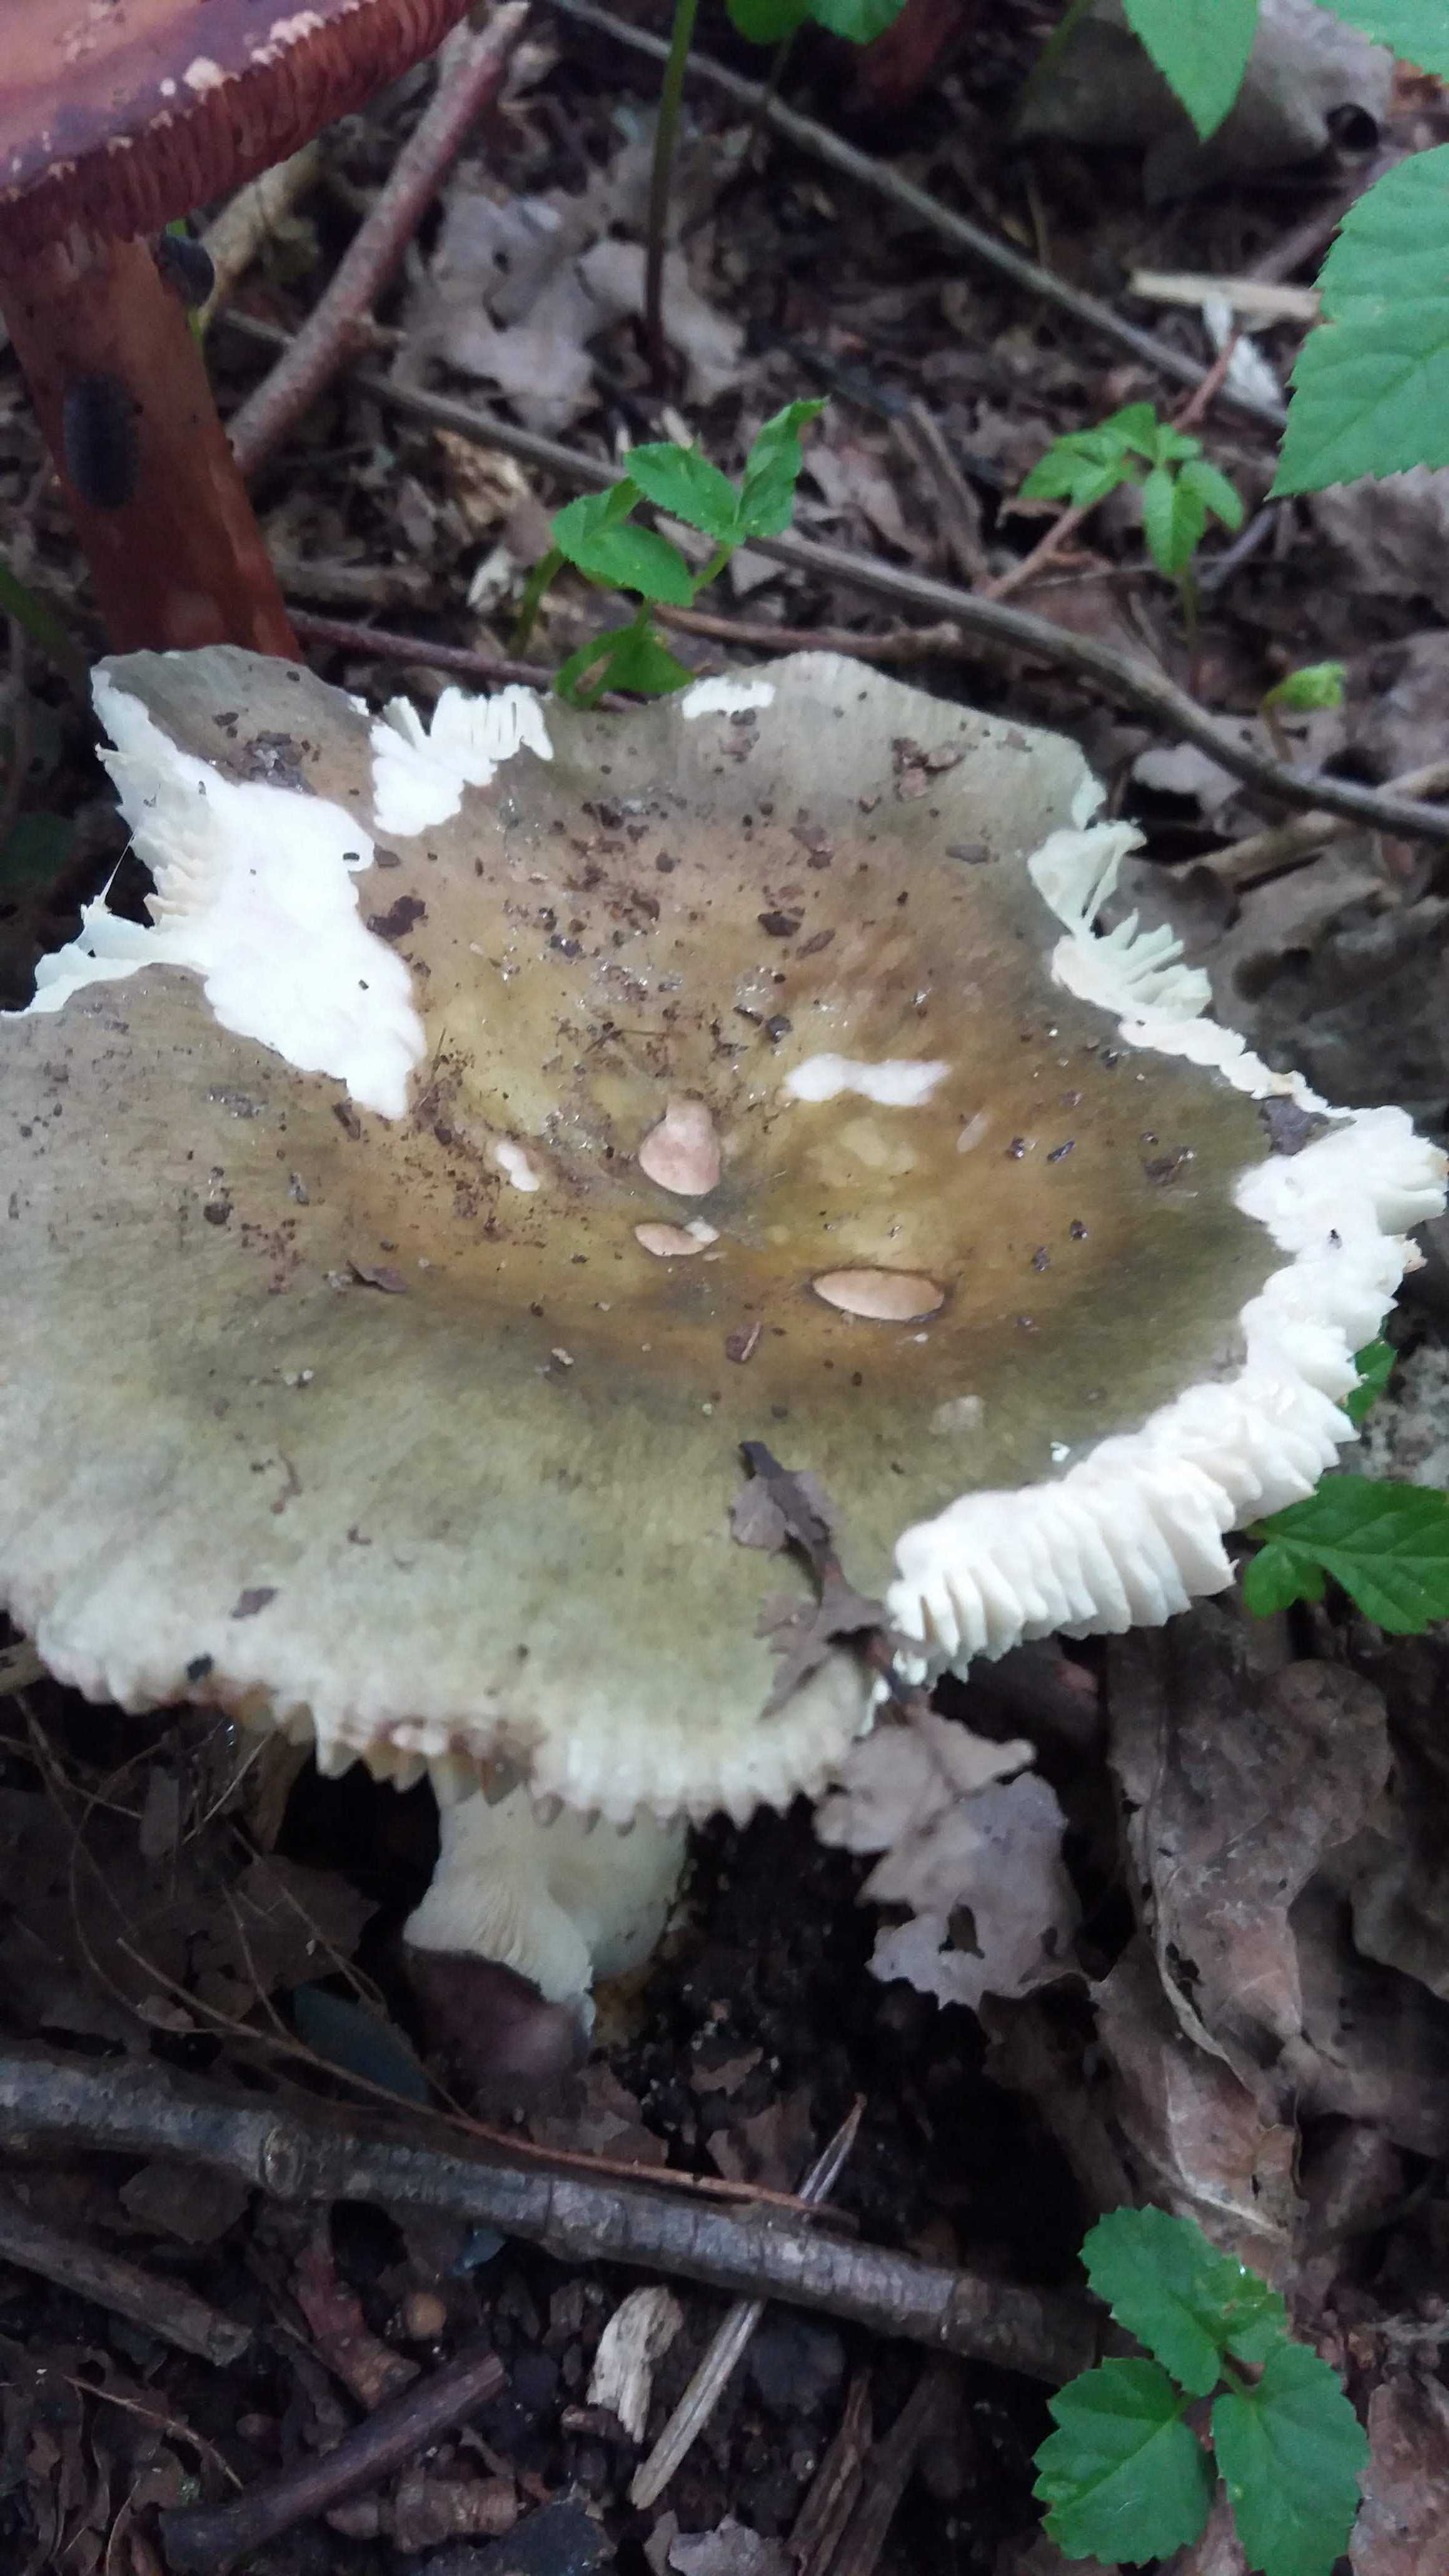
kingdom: Fungi
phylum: Basidiomycota
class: Agaricomycetes
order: Russulales
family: Russulaceae
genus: Russula
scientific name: Russula
